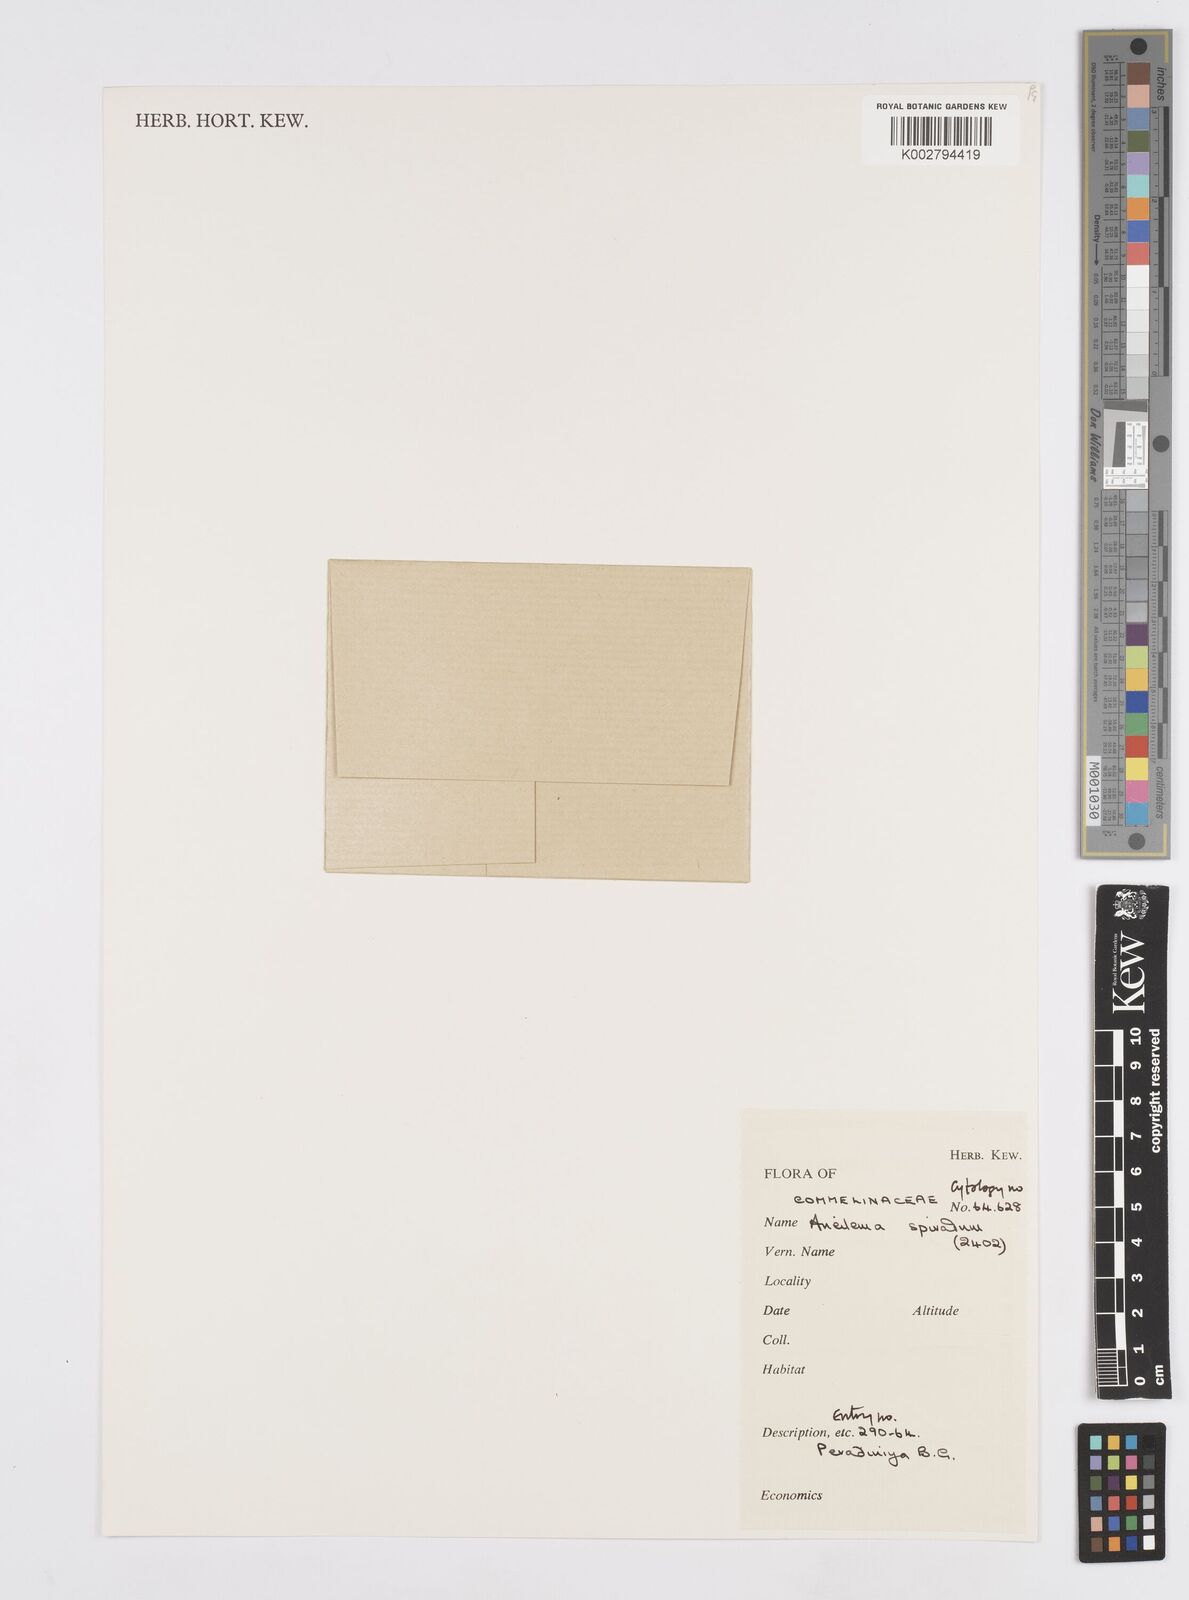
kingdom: Plantae
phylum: Tracheophyta
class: Liliopsida
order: Commelinales
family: Commelinaceae
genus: Murdannia
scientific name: Murdannia spirata
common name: Asiatic dewflower
